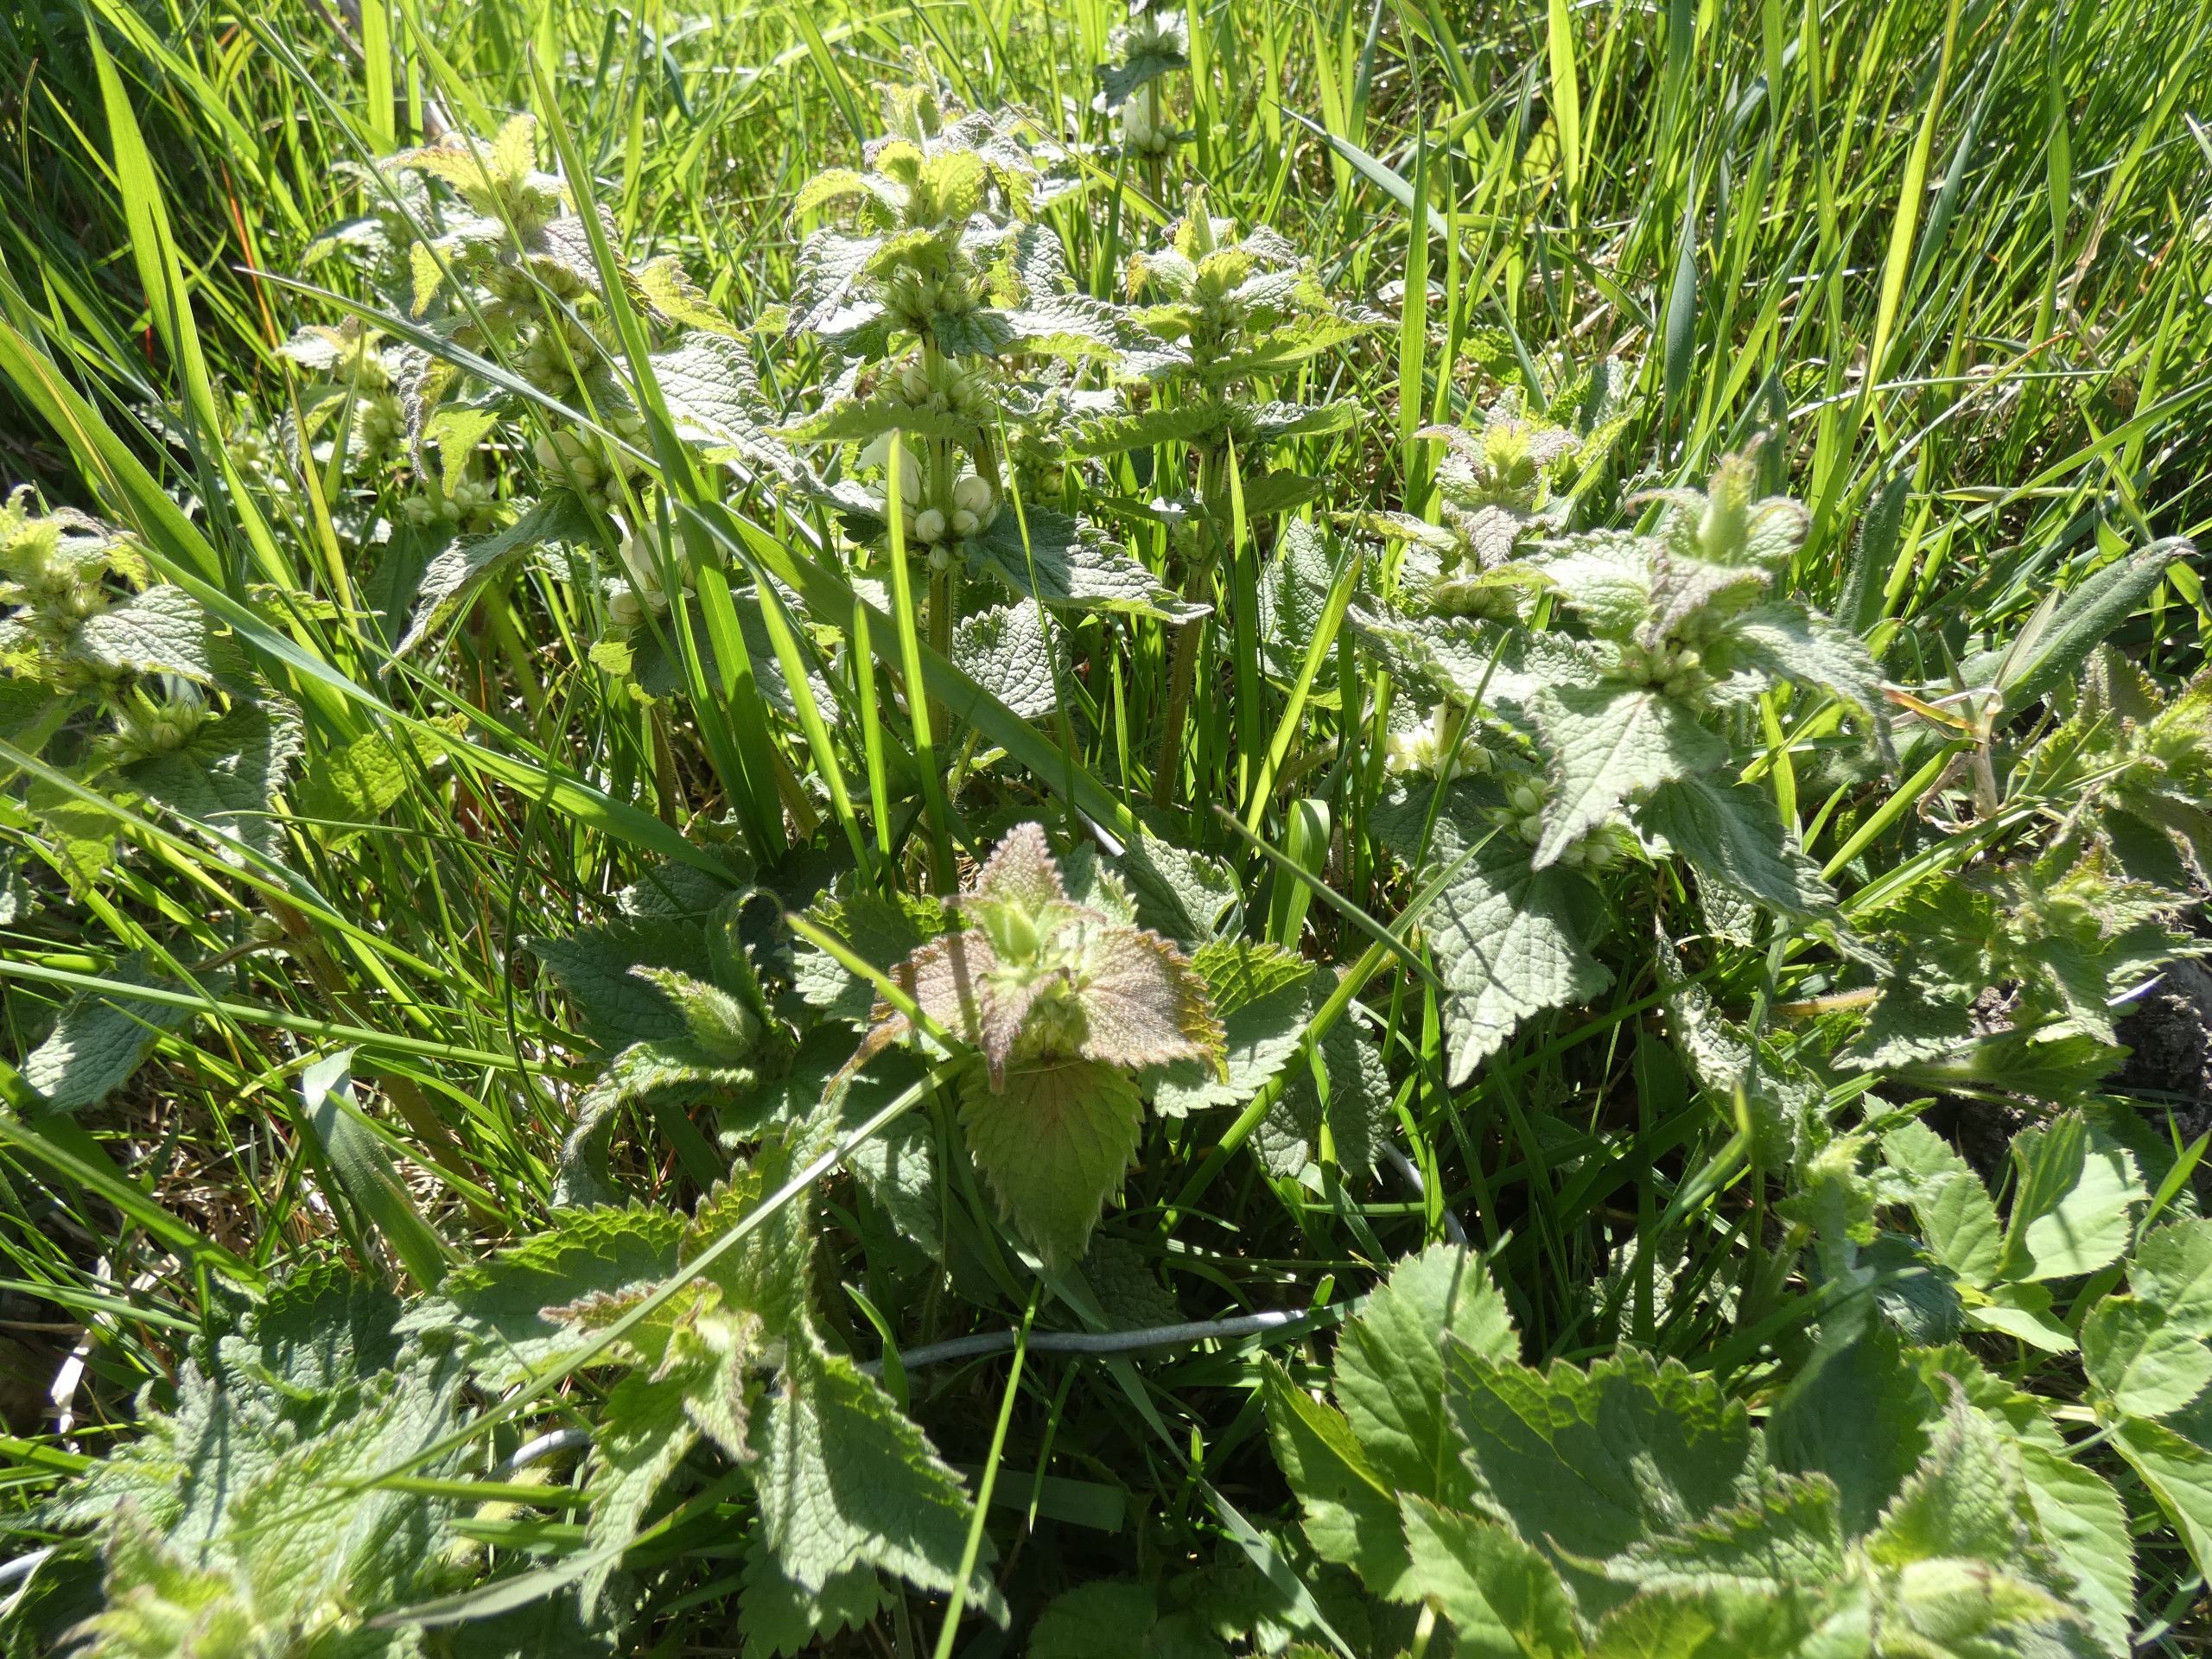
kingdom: Plantae
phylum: Tracheophyta
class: Magnoliopsida
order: Lamiales
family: Lamiaceae
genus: Lamium
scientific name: Lamium album
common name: Døvnælde
